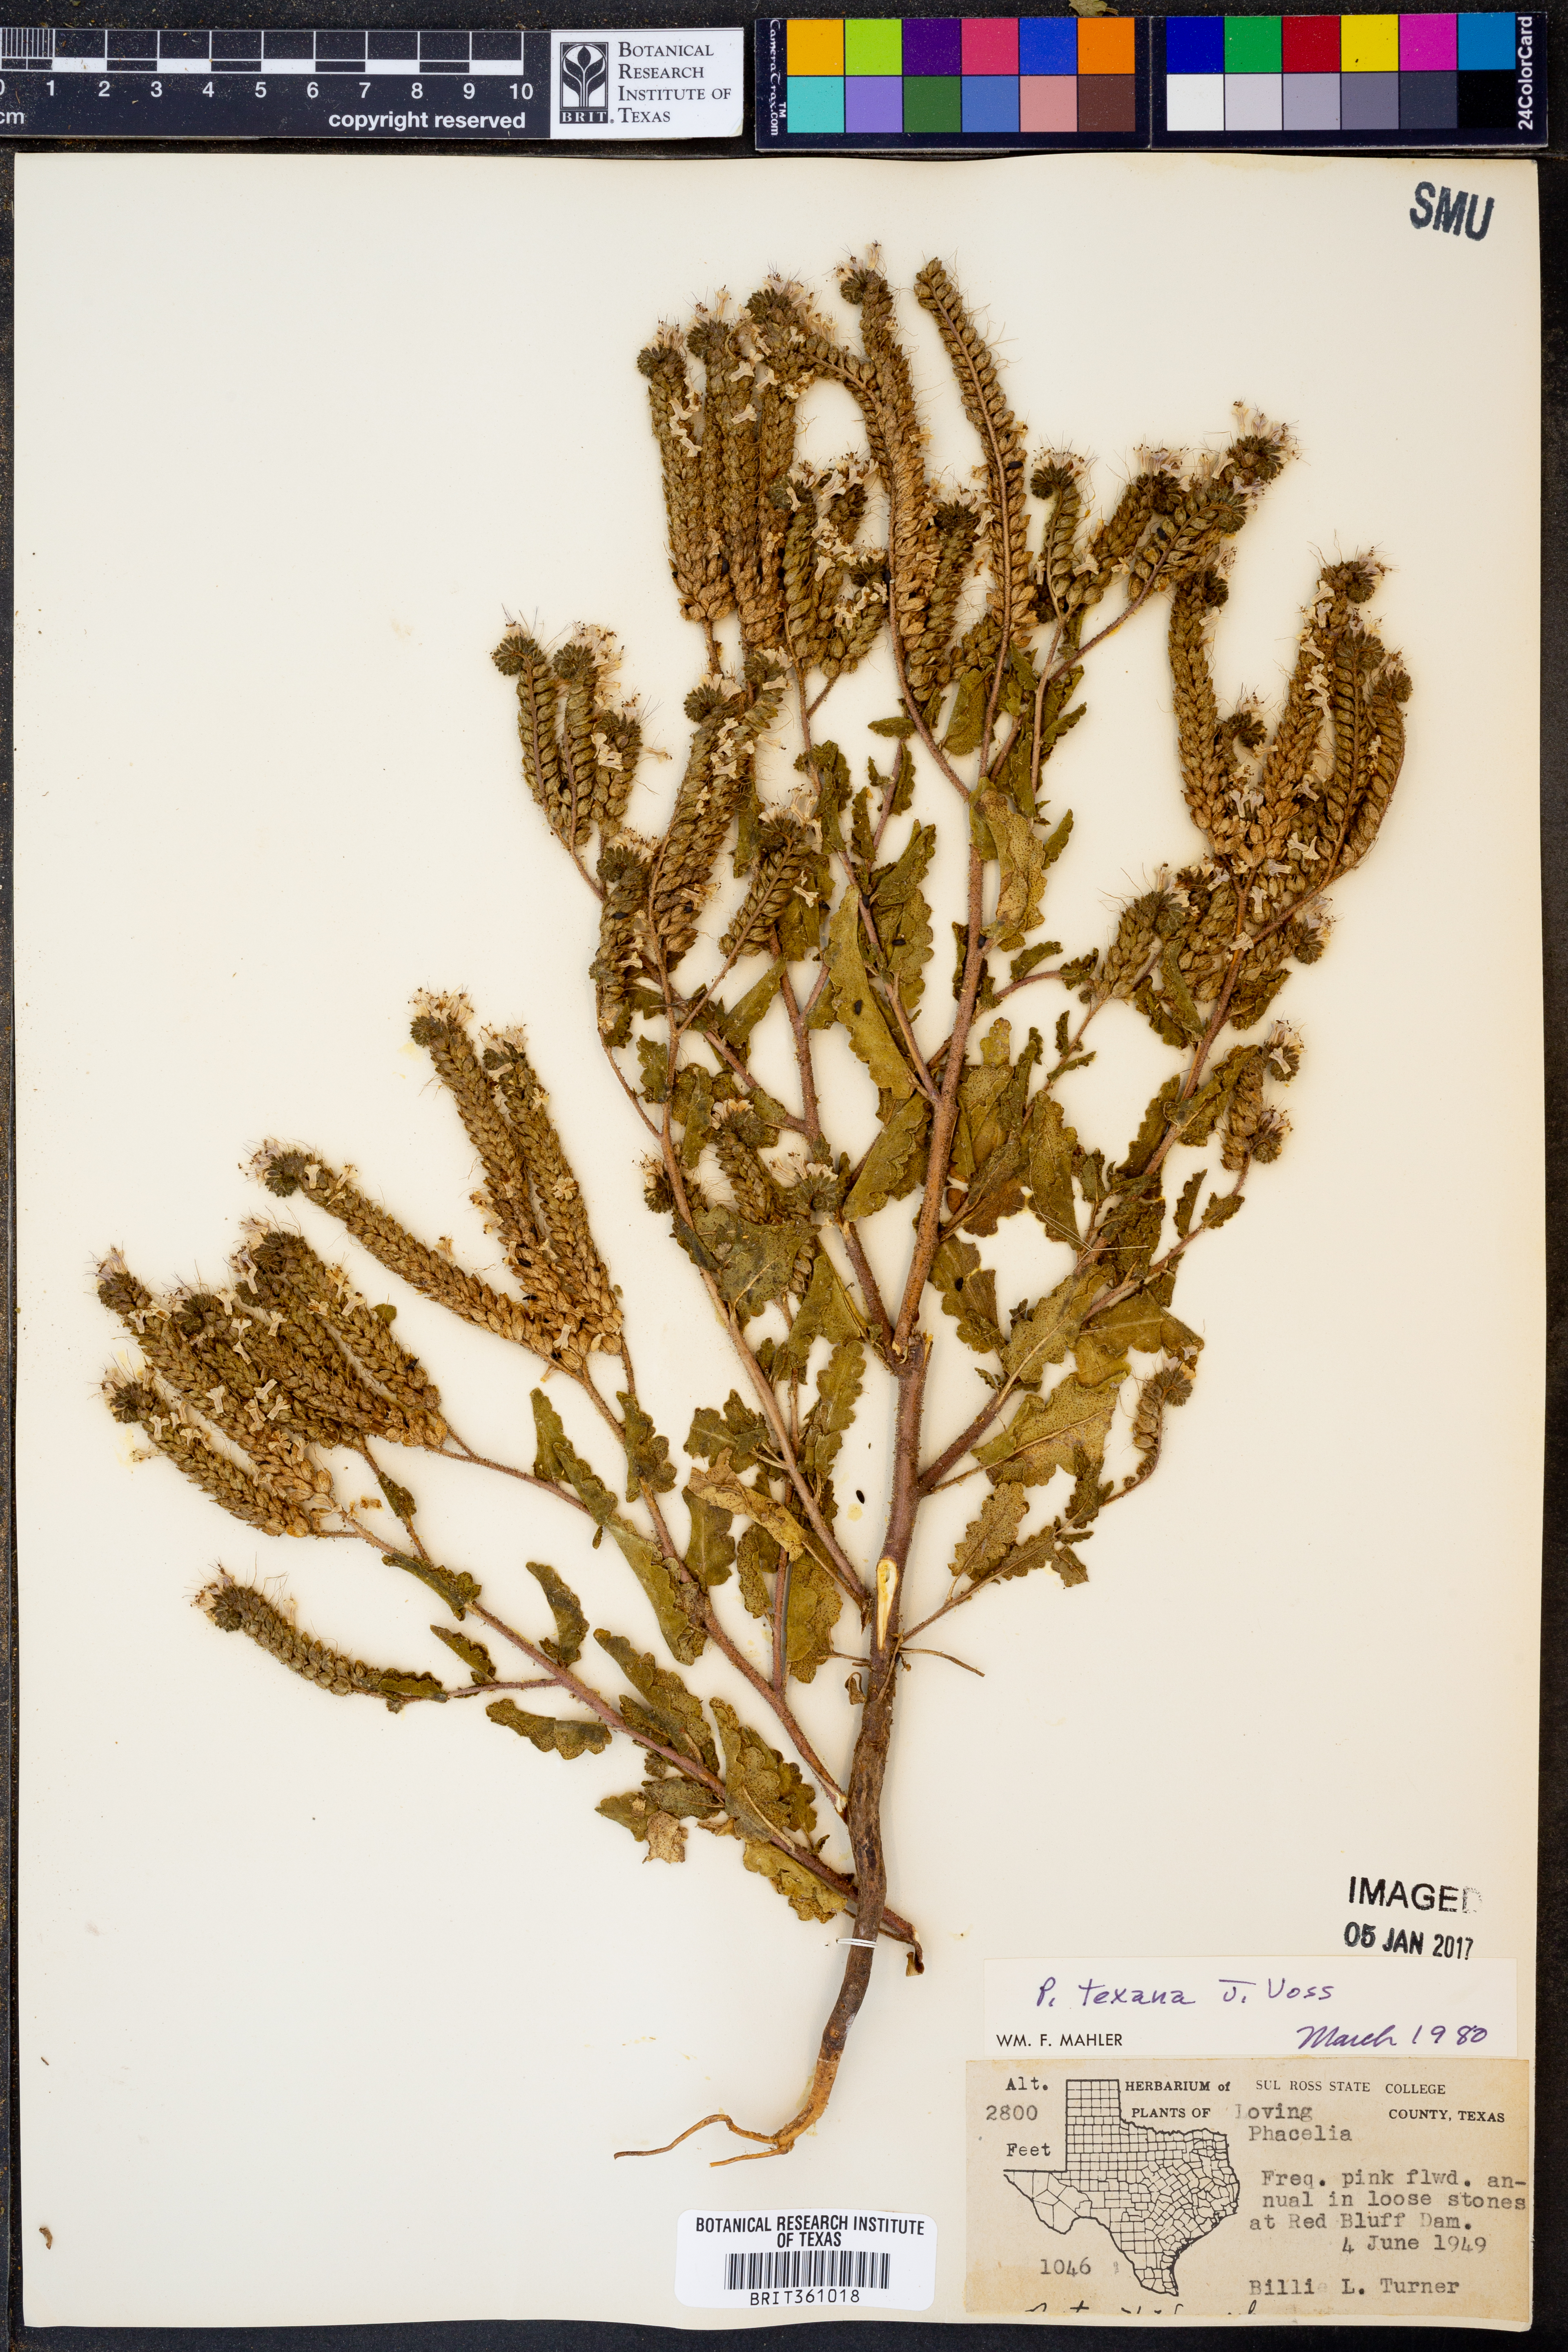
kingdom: Plantae
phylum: Tracheophyta
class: Magnoliopsida
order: Boraginales
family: Hydrophyllaceae
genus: Phacelia
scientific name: Phacelia integrifolia
